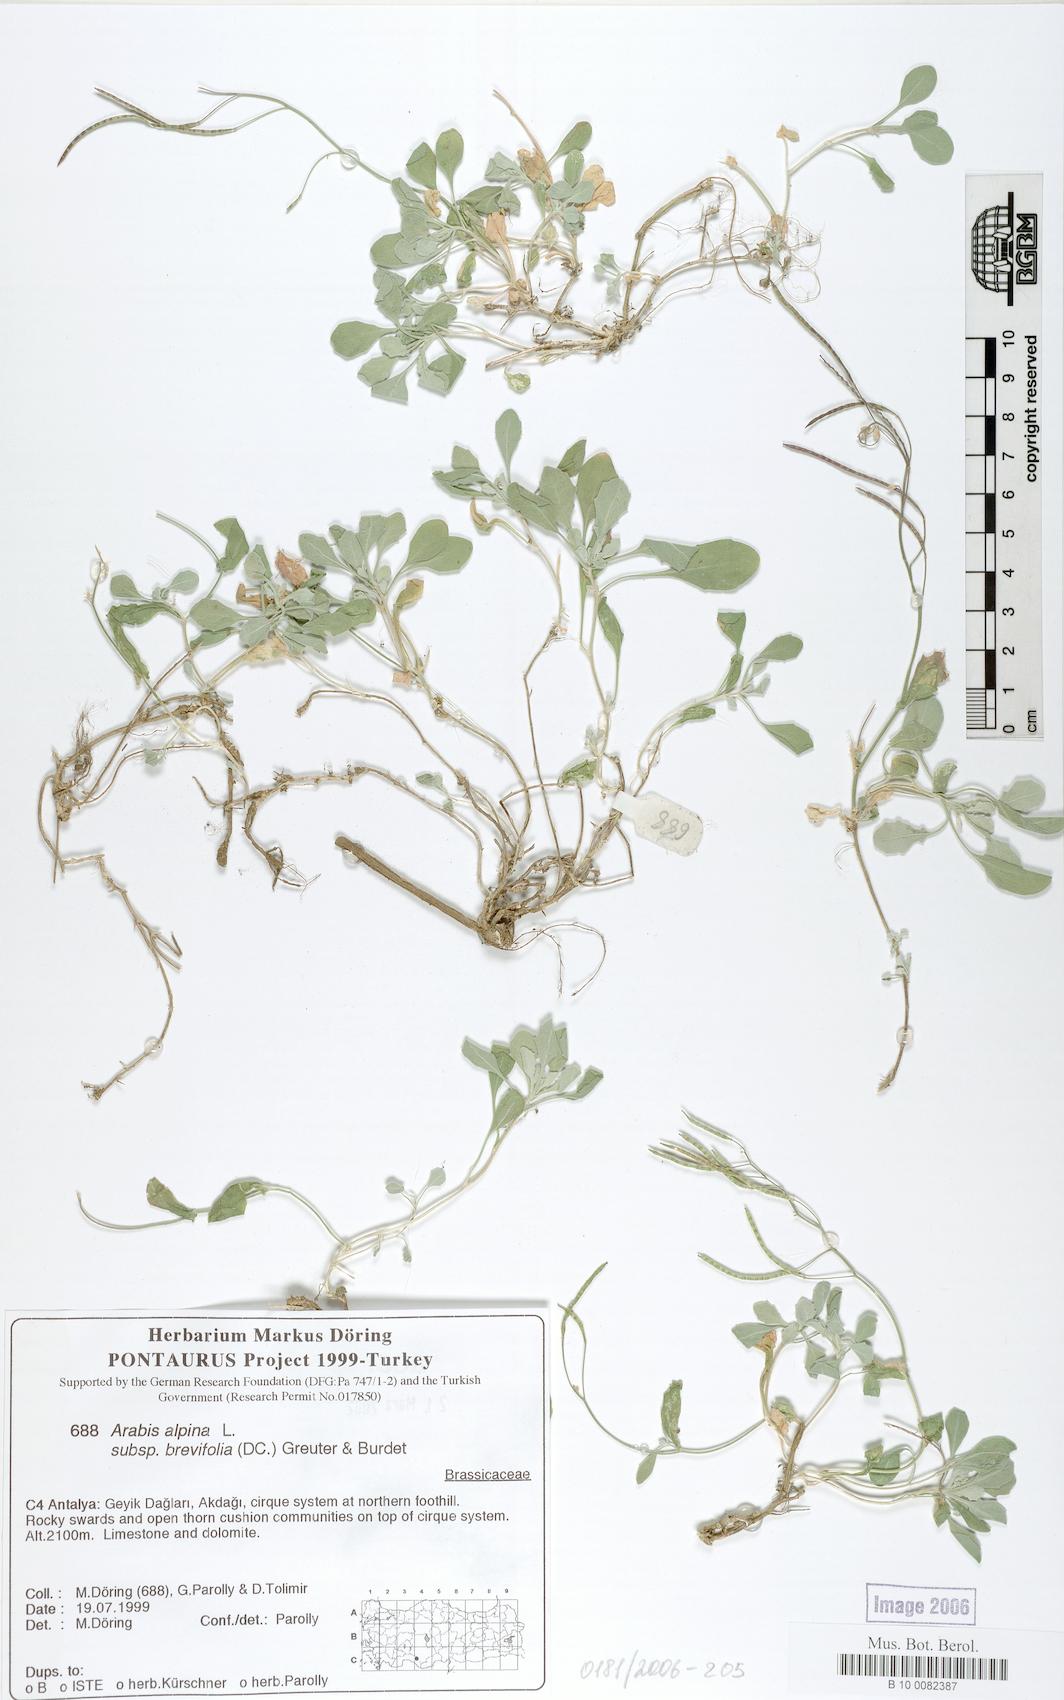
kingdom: Plantae
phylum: Tracheophyta
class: Magnoliopsida
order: Brassicales
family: Brassicaceae
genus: Arabis
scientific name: Arabis caucasica
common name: Gray rockcress
